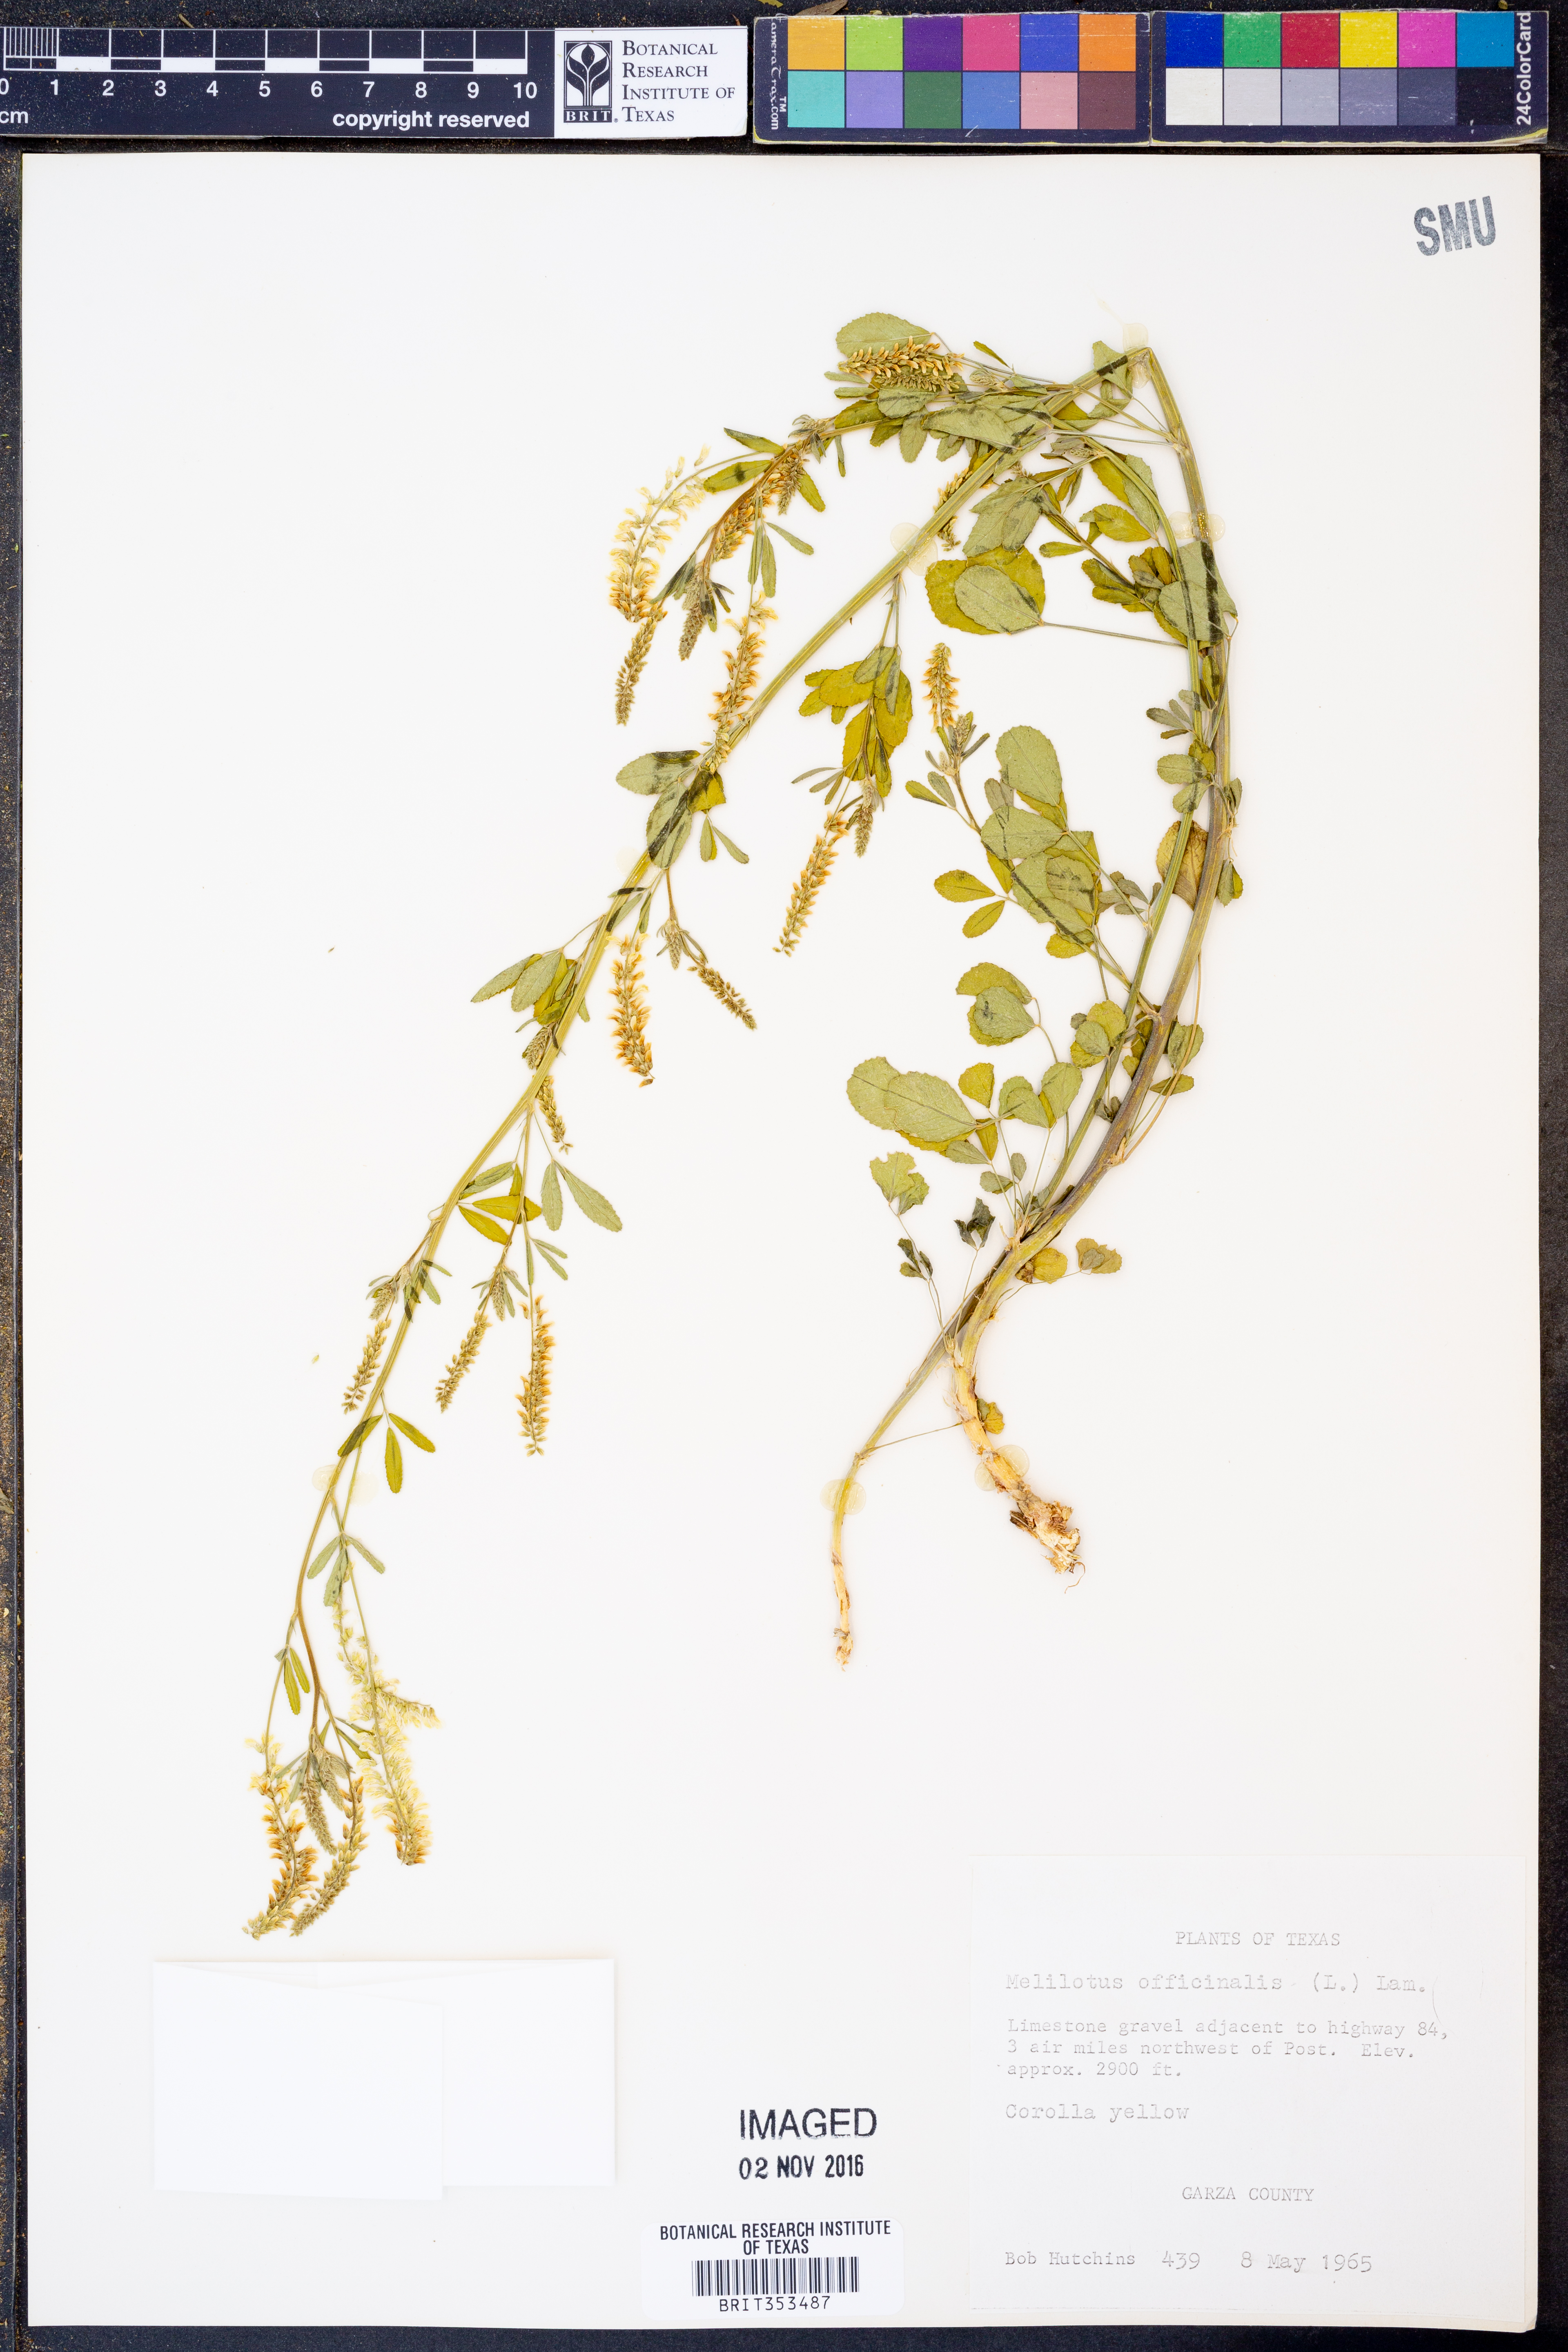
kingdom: Plantae
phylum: Tracheophyta
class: Magnoliopsida
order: Fabales
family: Fabaceae
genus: Melilotus
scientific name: Melilotus officinalis
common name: Sweetclover
